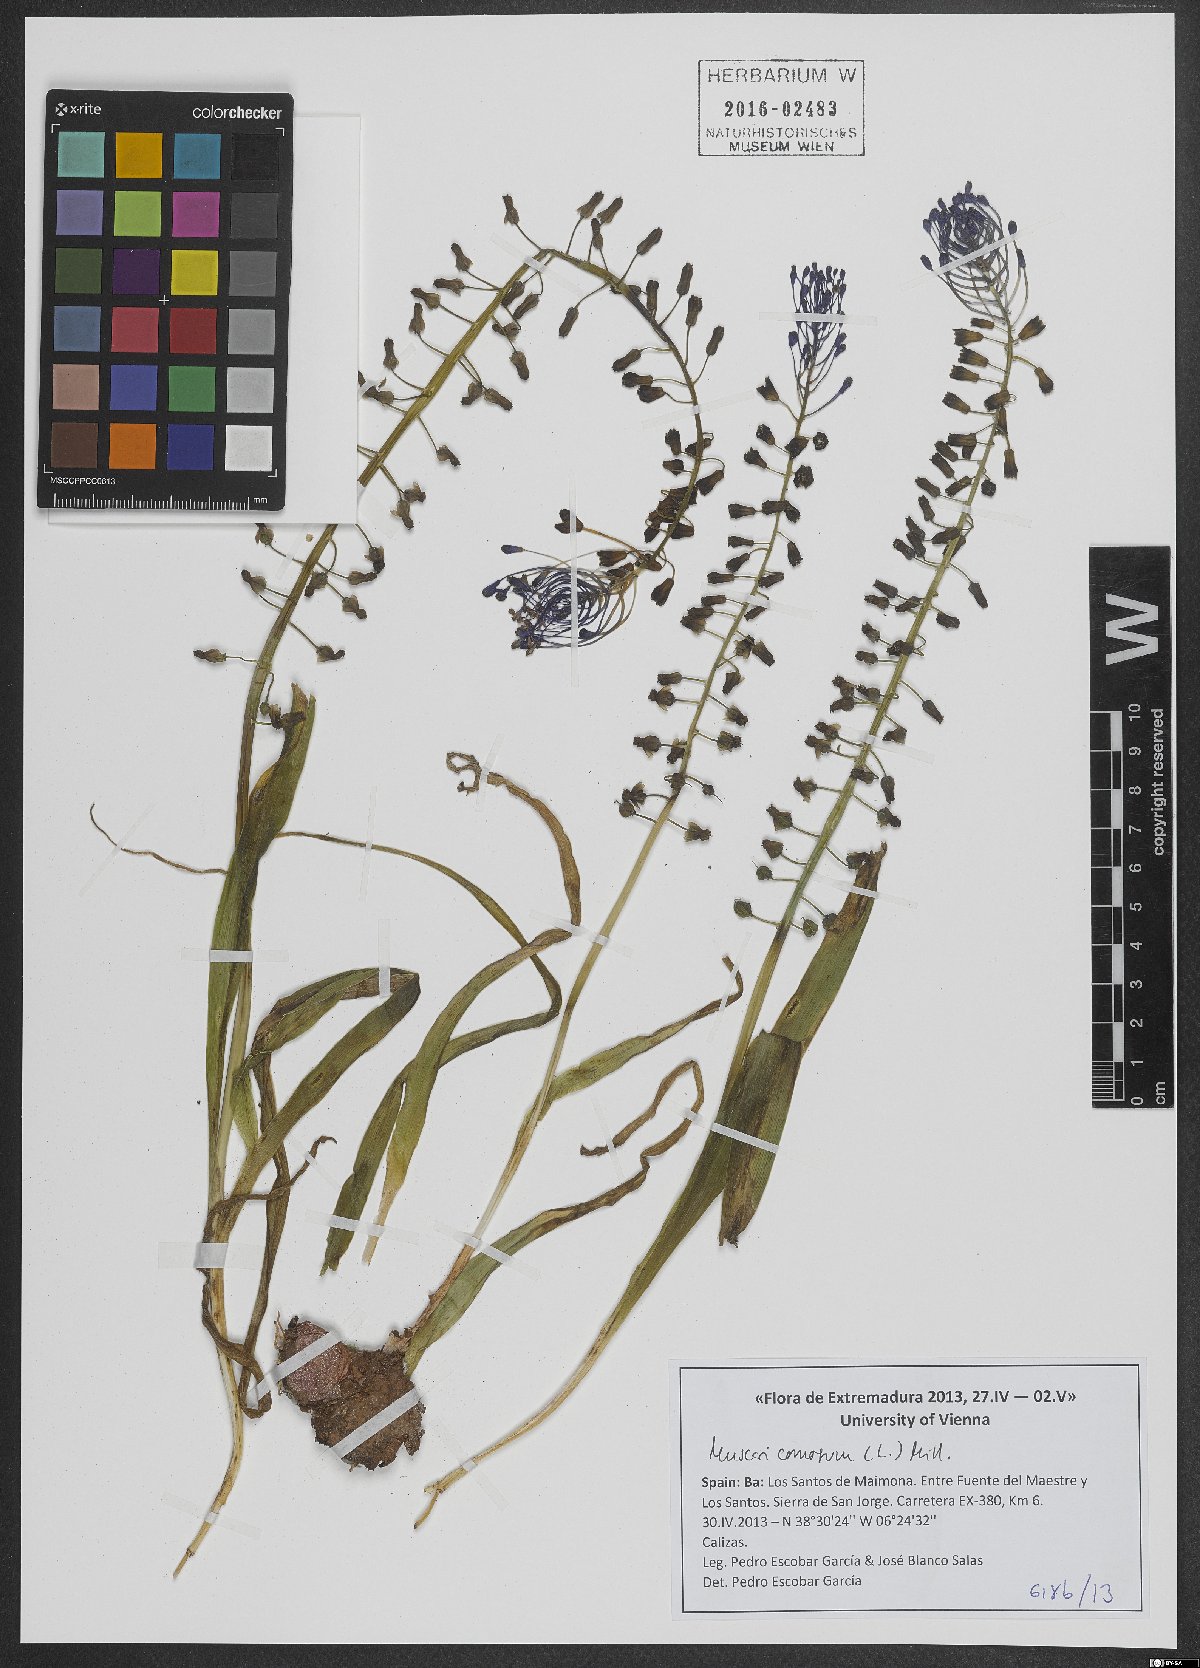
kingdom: Plantae
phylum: Tracheophyta
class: Liliopsida
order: Asparagales
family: Asparagaceae
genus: Muscari
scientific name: Muscari comosum
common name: Tassel hyacinth
